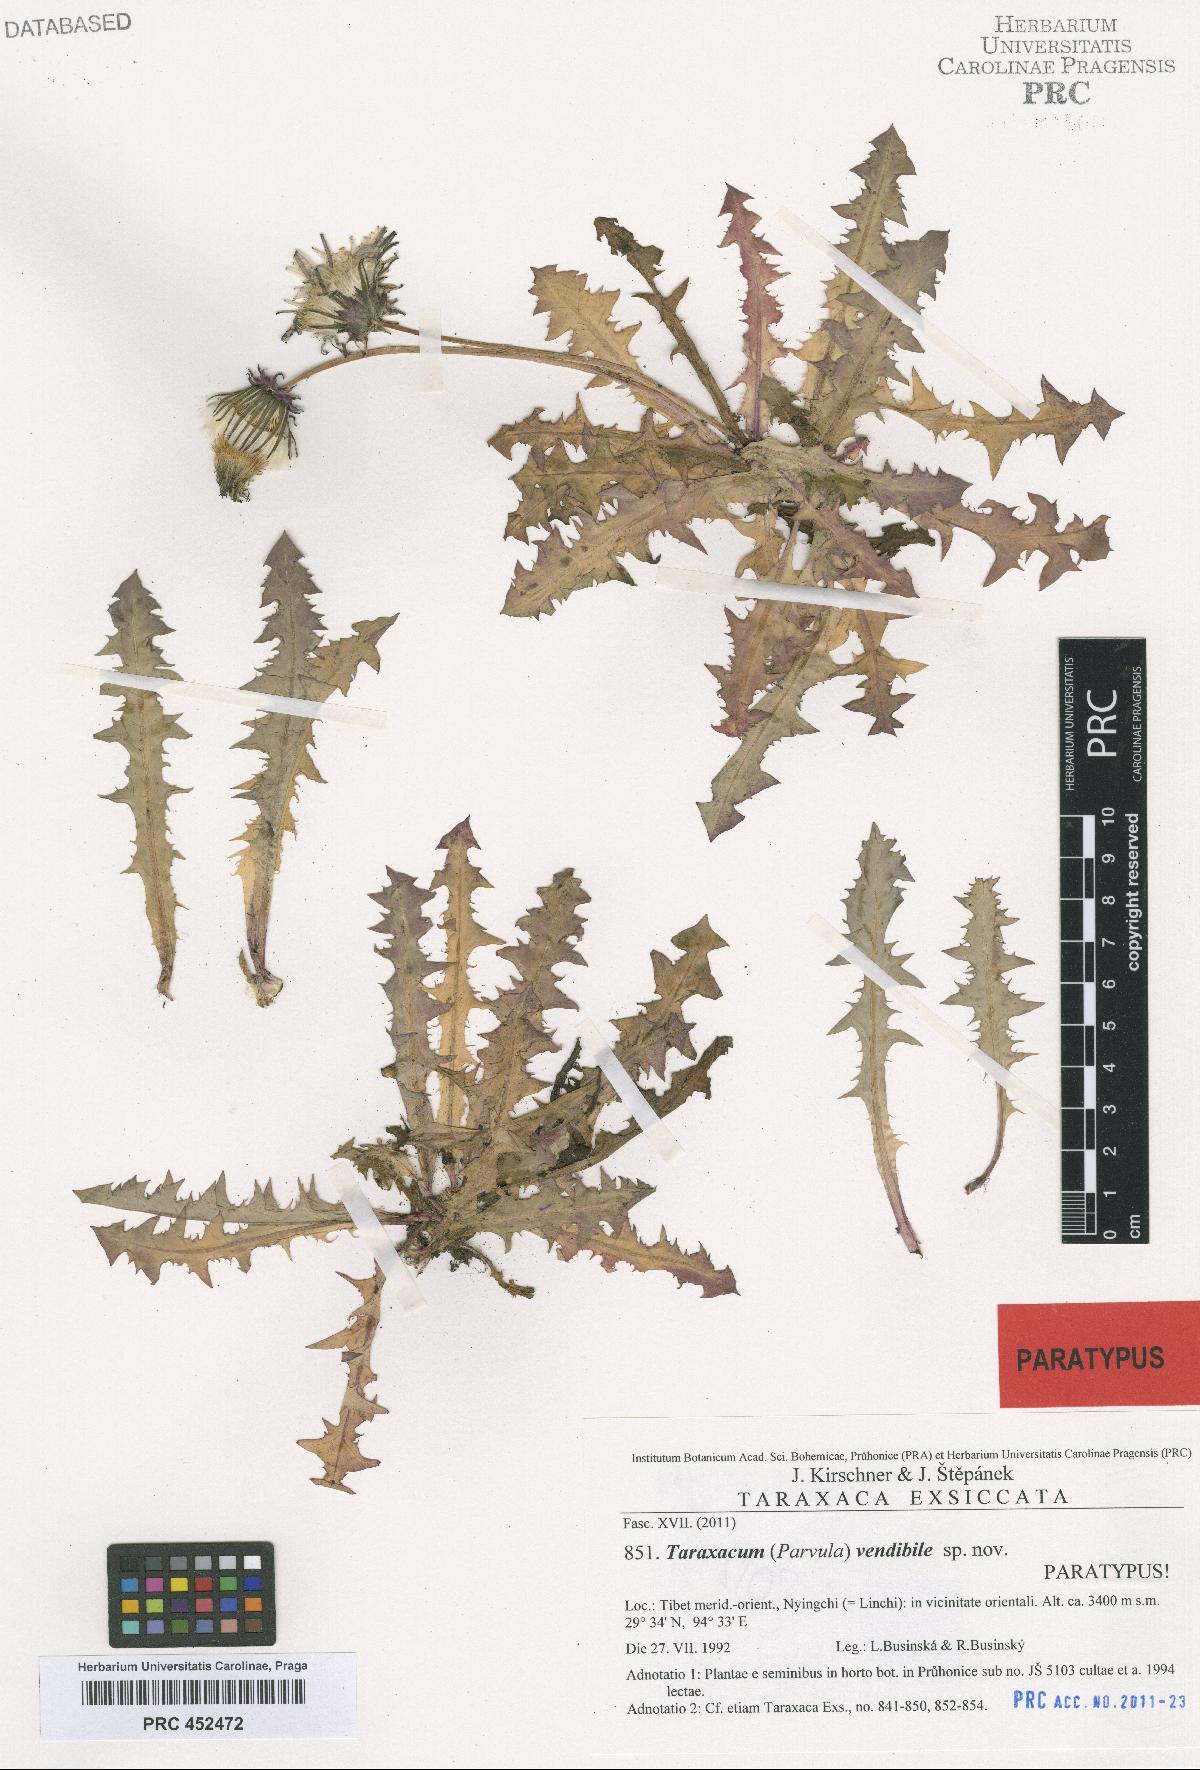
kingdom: Plantae
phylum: Tracheophyta
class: Magnoliopsida
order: Asterales
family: Asteraceae
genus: Taraxacum
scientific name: Taraxacum vendibile
